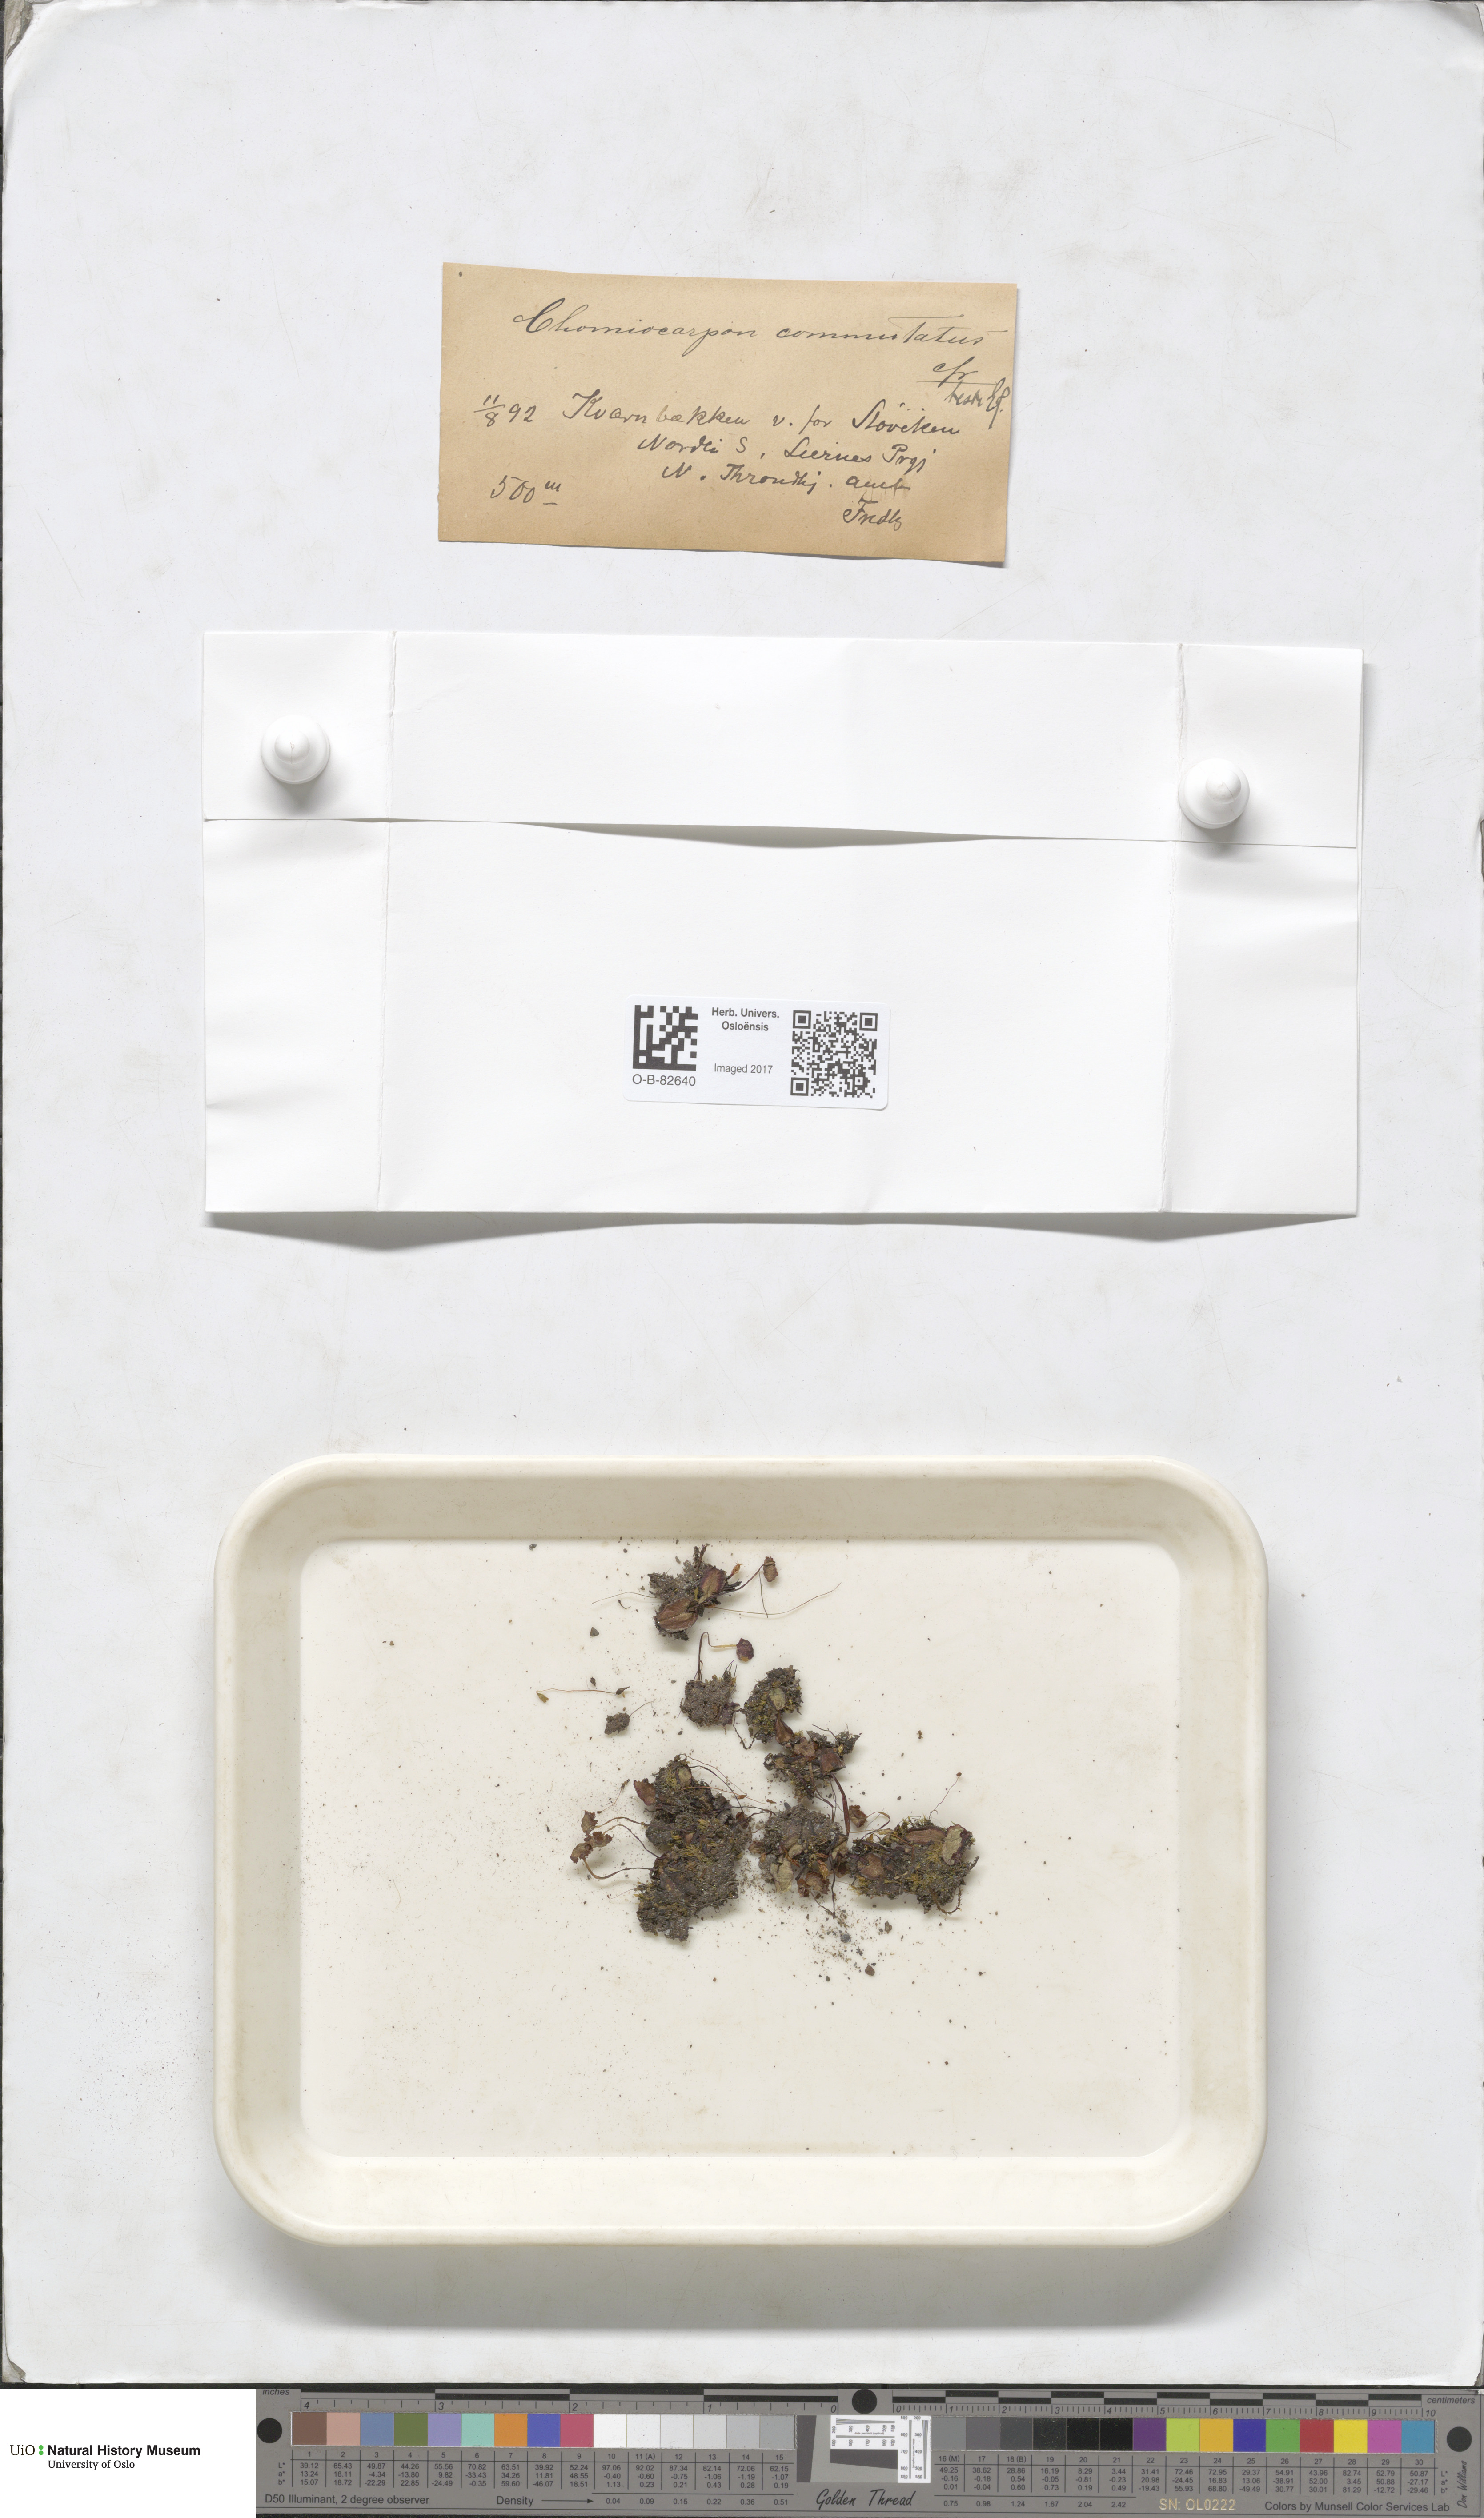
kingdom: Plantae
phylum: Marchantiophyta
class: Marchantiopsida
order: Marchantiales
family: Marchantiaceae
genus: Marchantia
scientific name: Marchantia quadrata
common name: Narrow mushroom-headed liverwort
